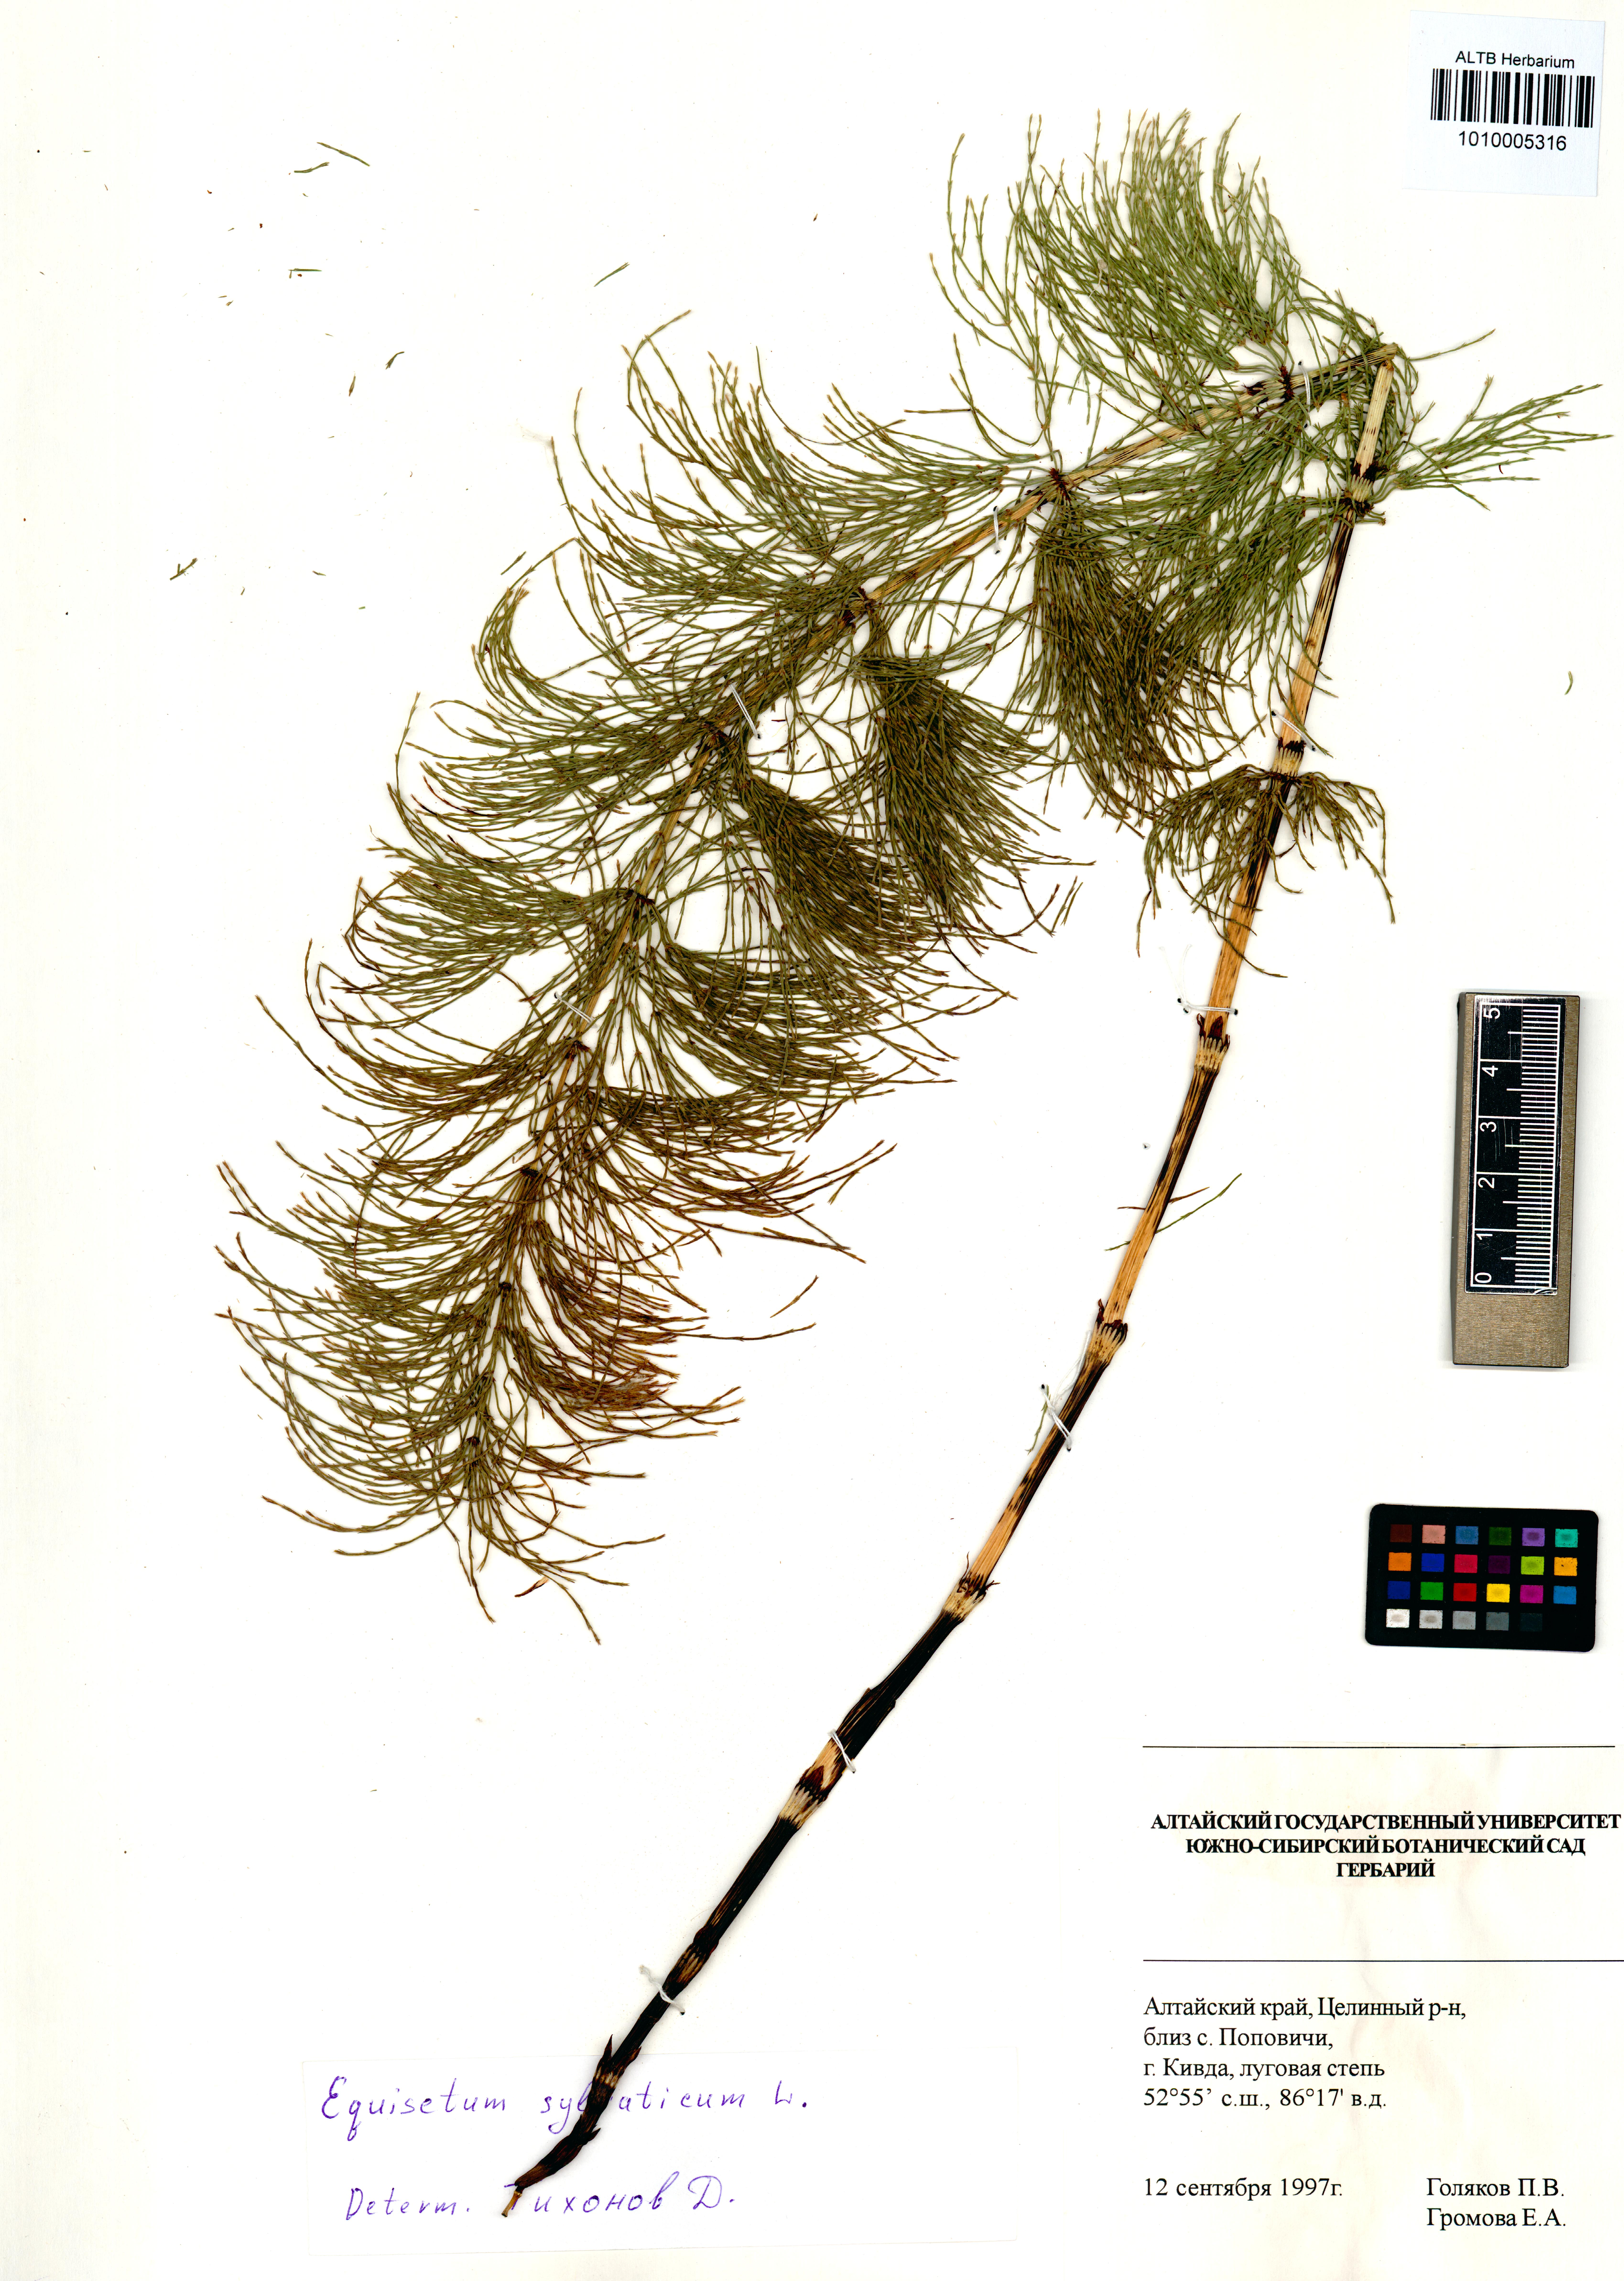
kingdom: Plantae
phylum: Tracheophyta
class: Polypodiopsida
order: Equisetales
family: Equisetaceae
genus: Equisetum
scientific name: Equisetum sylvaticum
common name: Wood horsetail
